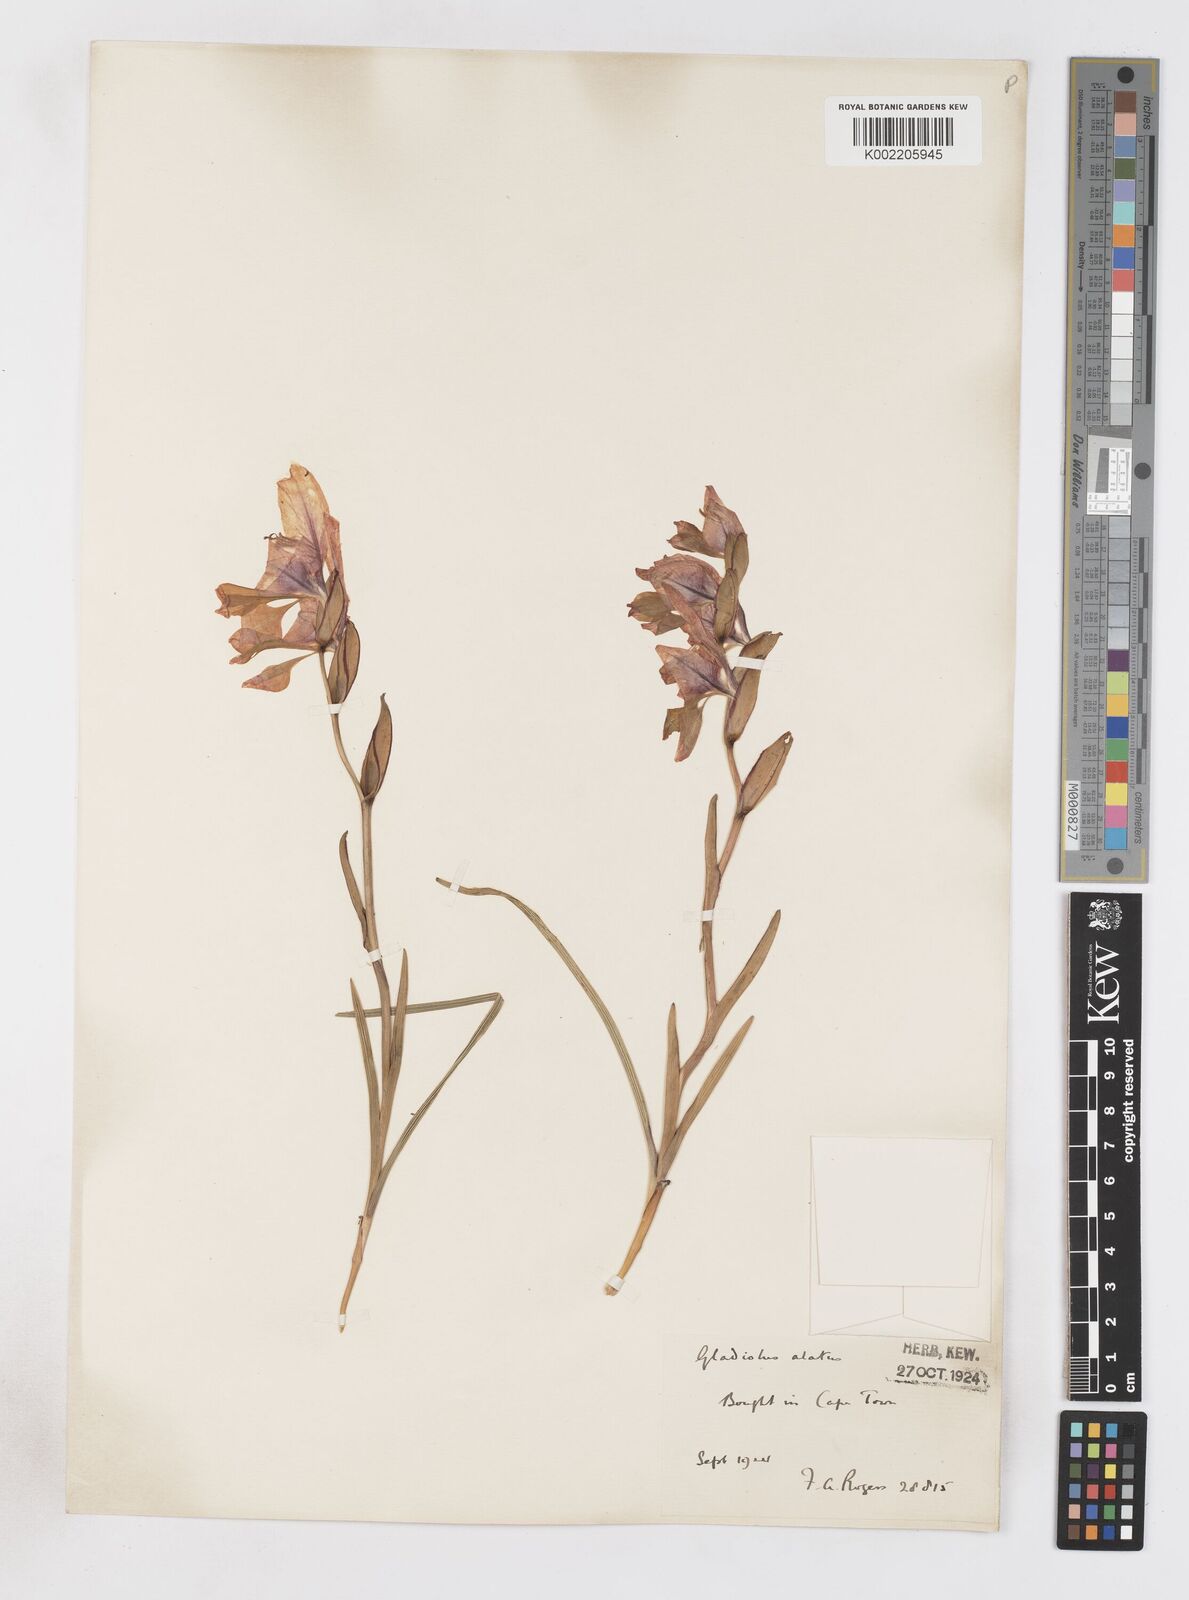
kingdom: Plantae
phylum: Tracheophyta
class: Liliopsida
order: Asparagales
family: Iridaceae
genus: Gladiolus
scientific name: Gladiolus alatus
